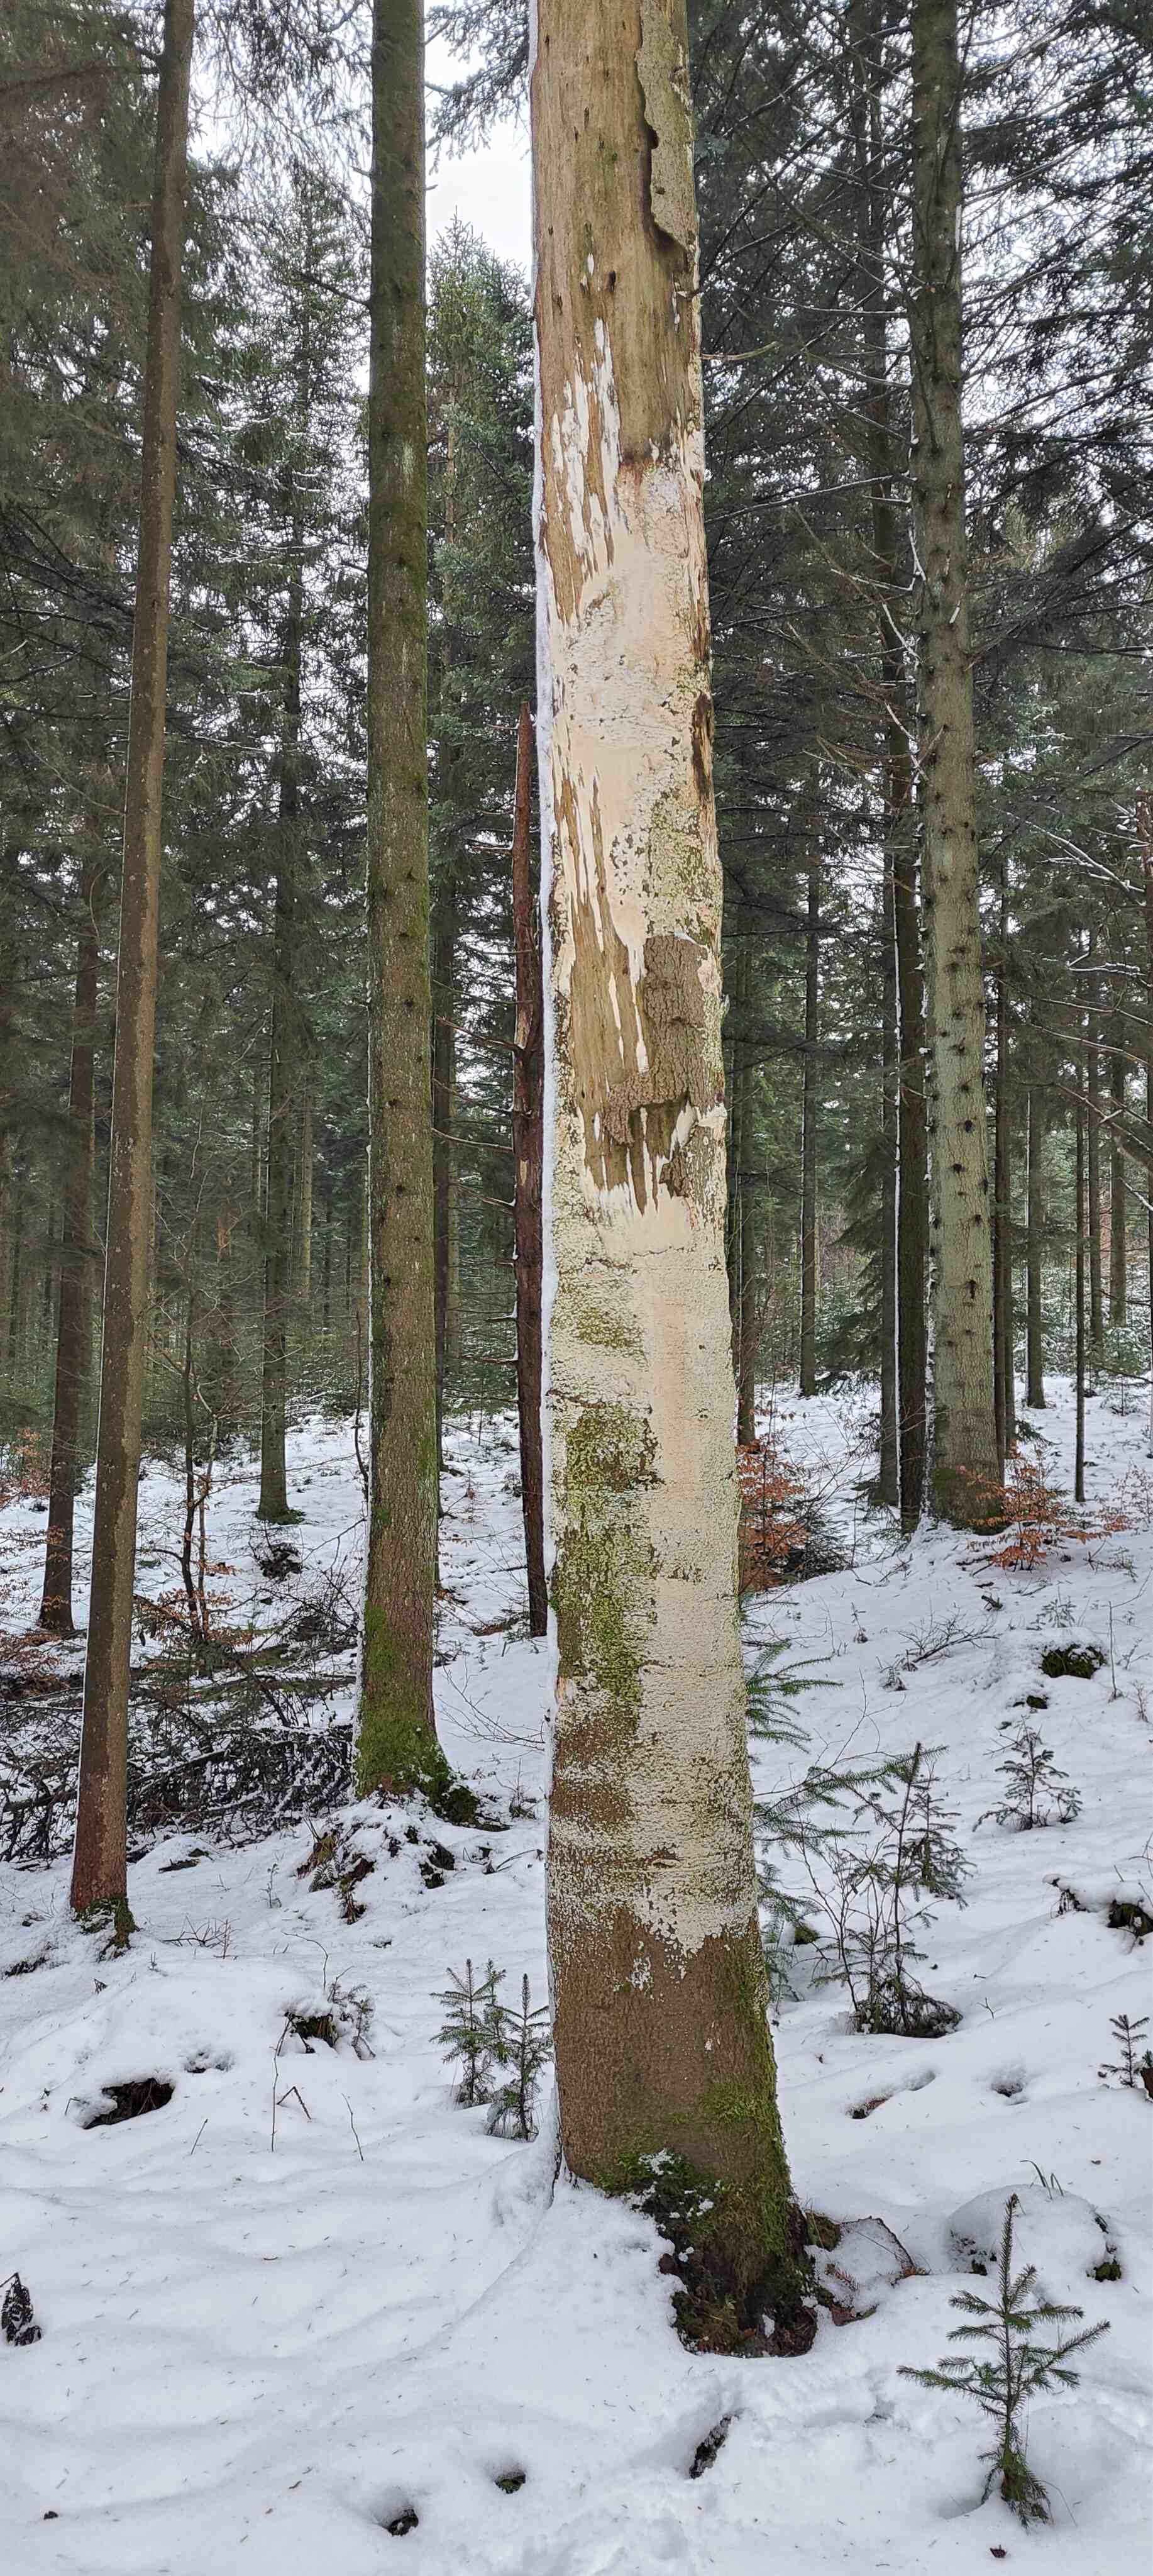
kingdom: Fungi
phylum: Basidiomycota
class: Agaricomycetes
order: Hymenochaetales
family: Schizoporaceae
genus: Xylodon
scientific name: Xylodon subtropicus
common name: labyrint-tandsvamp
